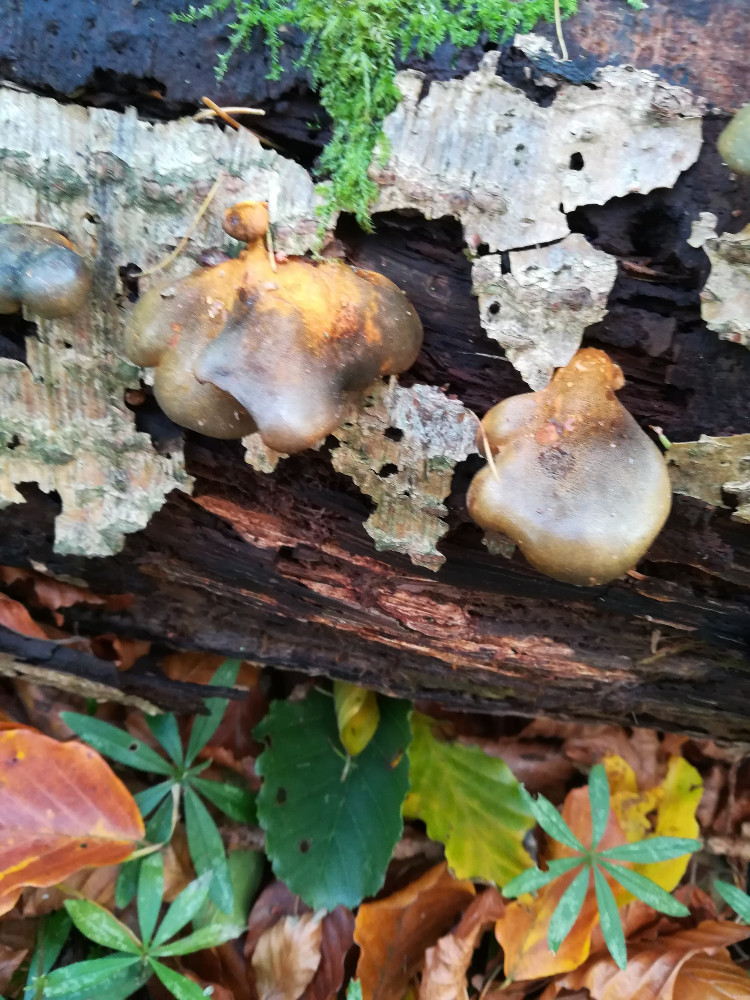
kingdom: Fungi
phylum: Basidiomycota
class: Agaricomycetes
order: Agaricales
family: Sarcomyxaceae
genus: Sarcomyxa
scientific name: Sarcomyxa serotina
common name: gummihat
